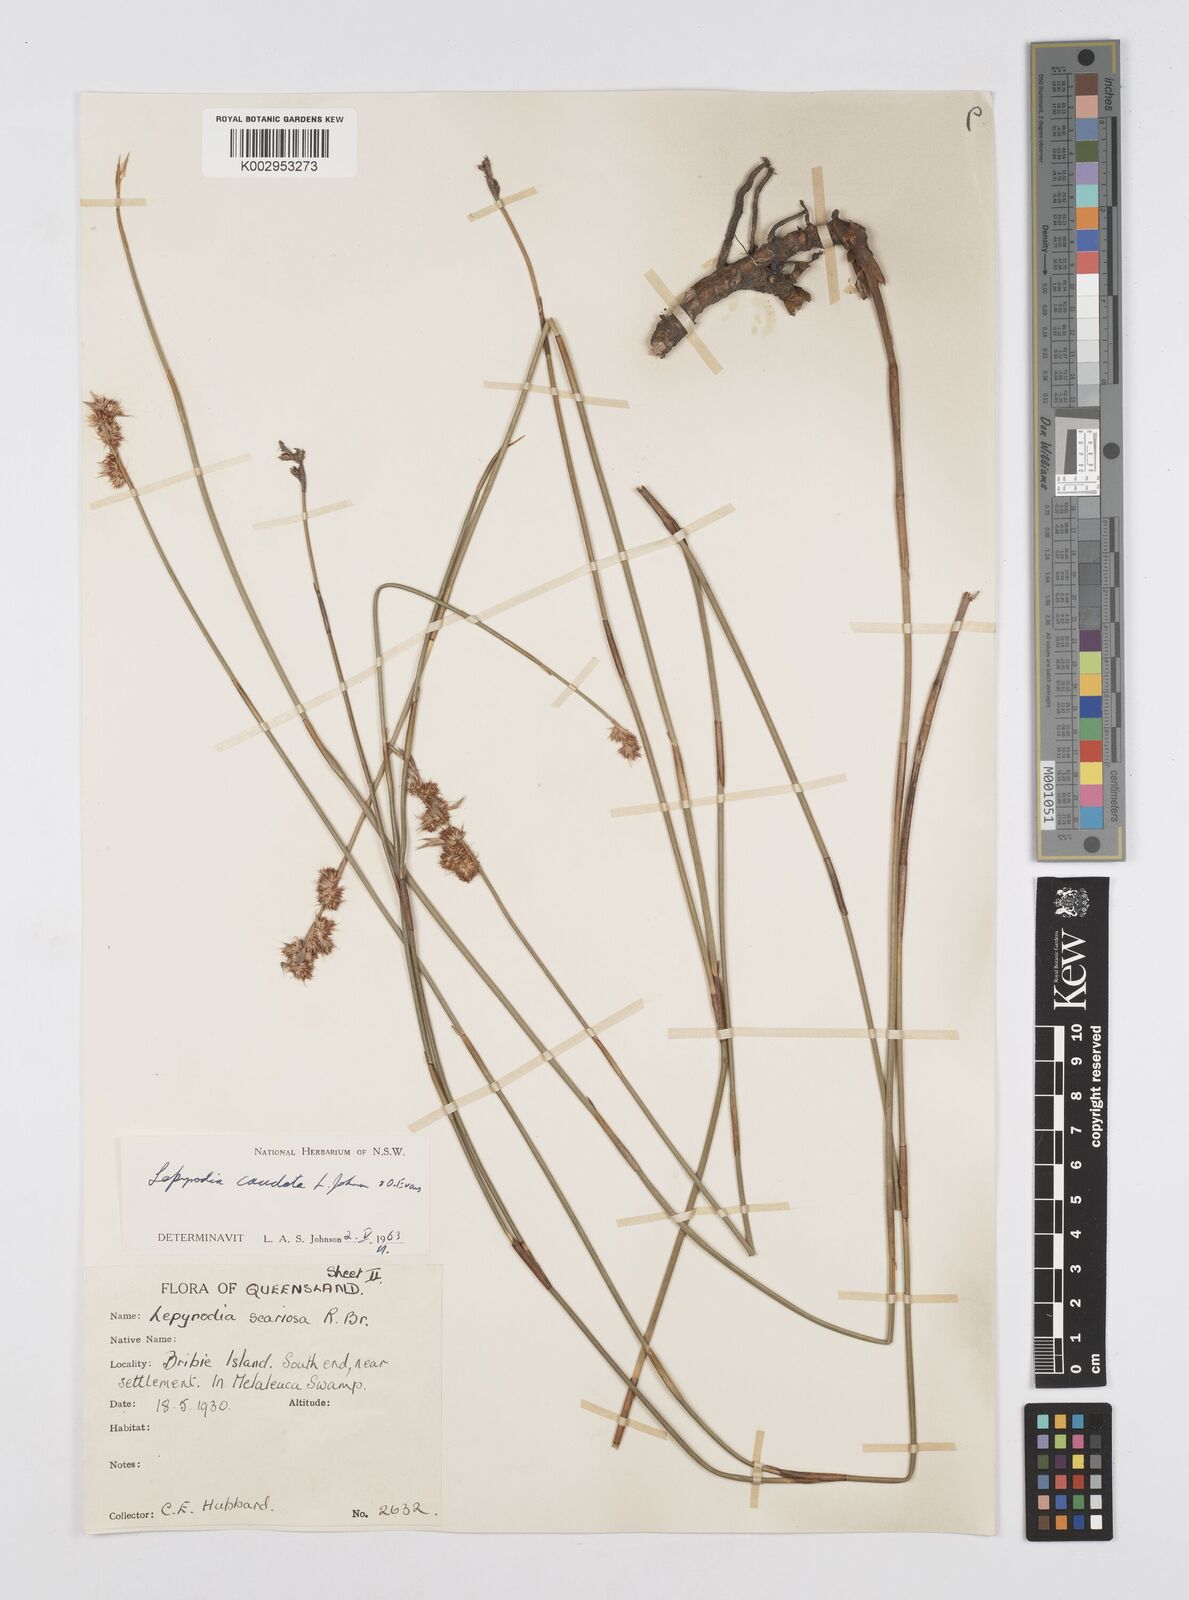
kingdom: Plantae
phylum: Tracheophyta
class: Liliopsida
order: Poales
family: Restionaceae
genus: Sporadanthus
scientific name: Sporadanthus caudatus
